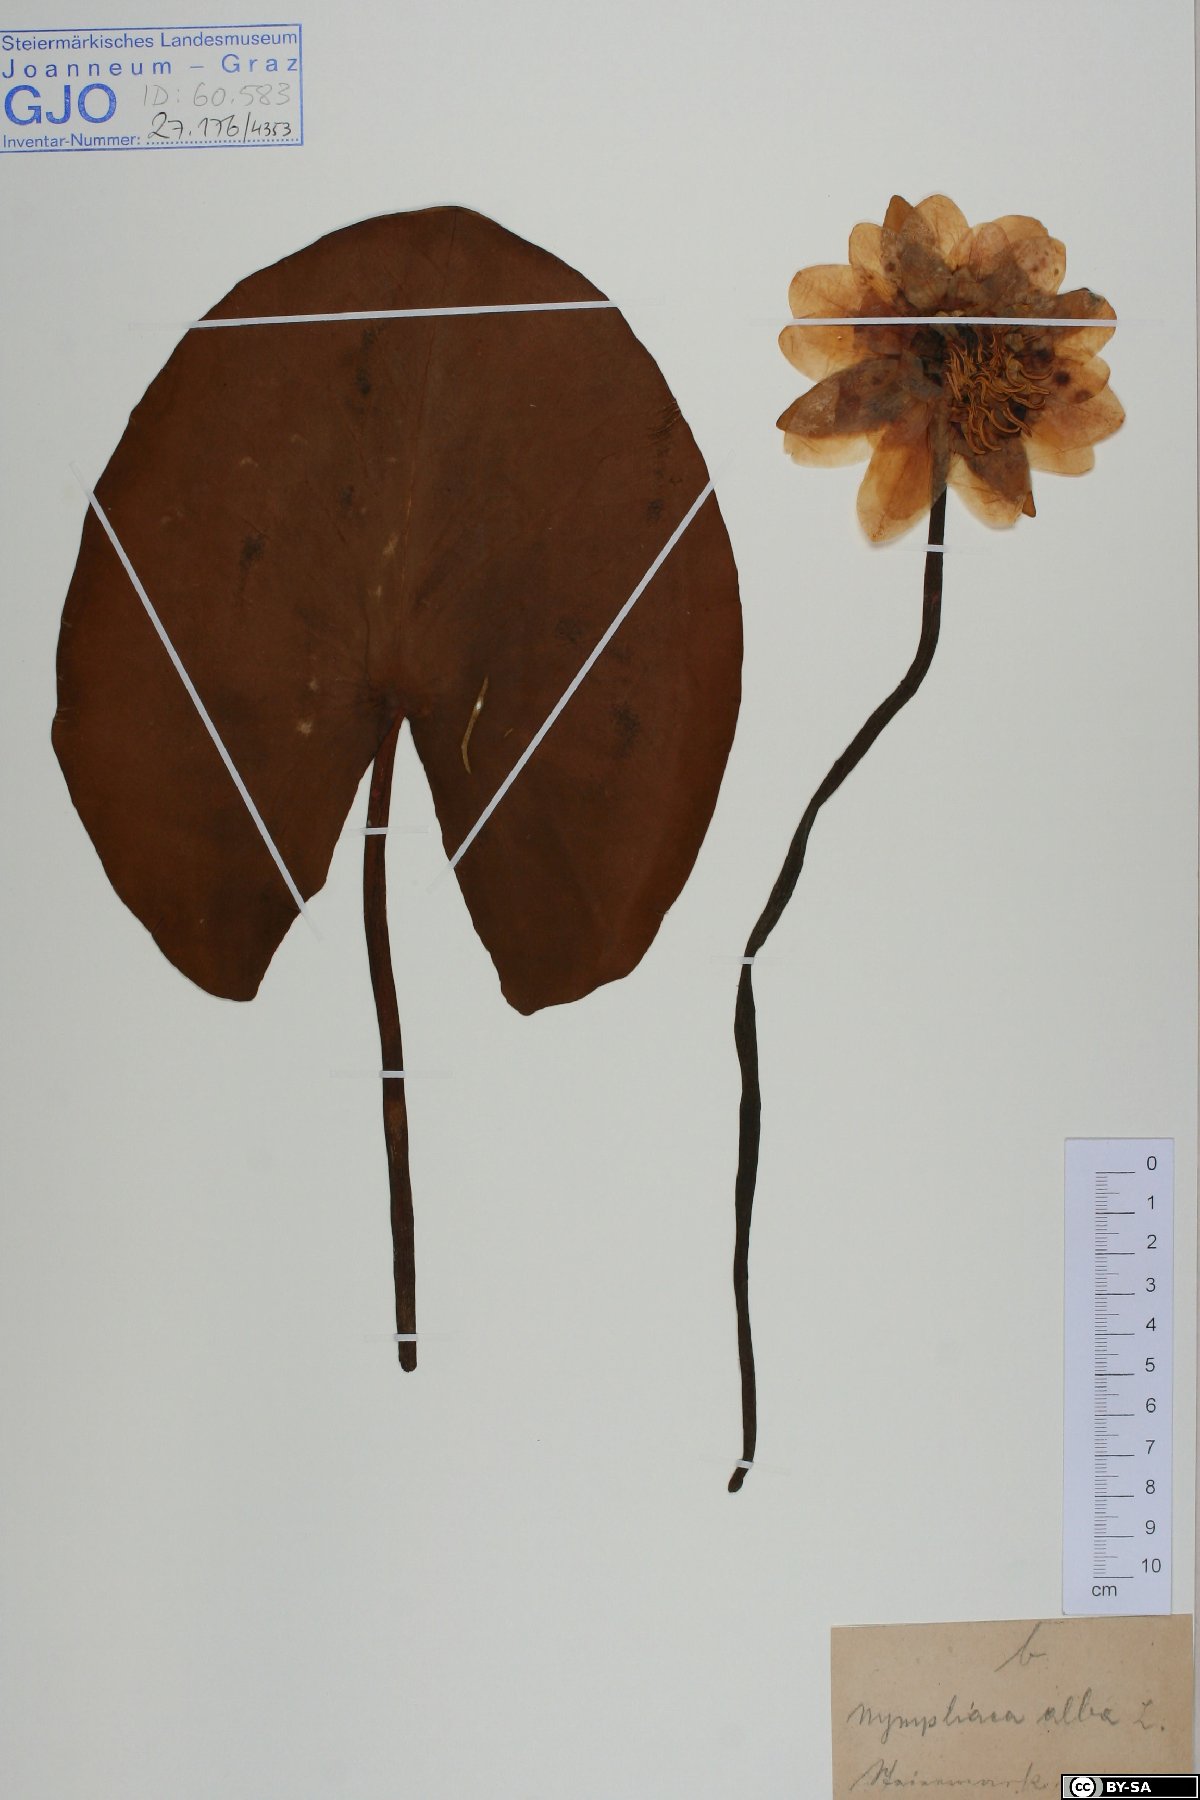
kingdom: Plantae
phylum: Tracheophyta
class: Magnoliopsida
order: Nymphaeales
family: Nymphaeaceae
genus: Nymphaea
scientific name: Nymphaea alba
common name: White water-lily
